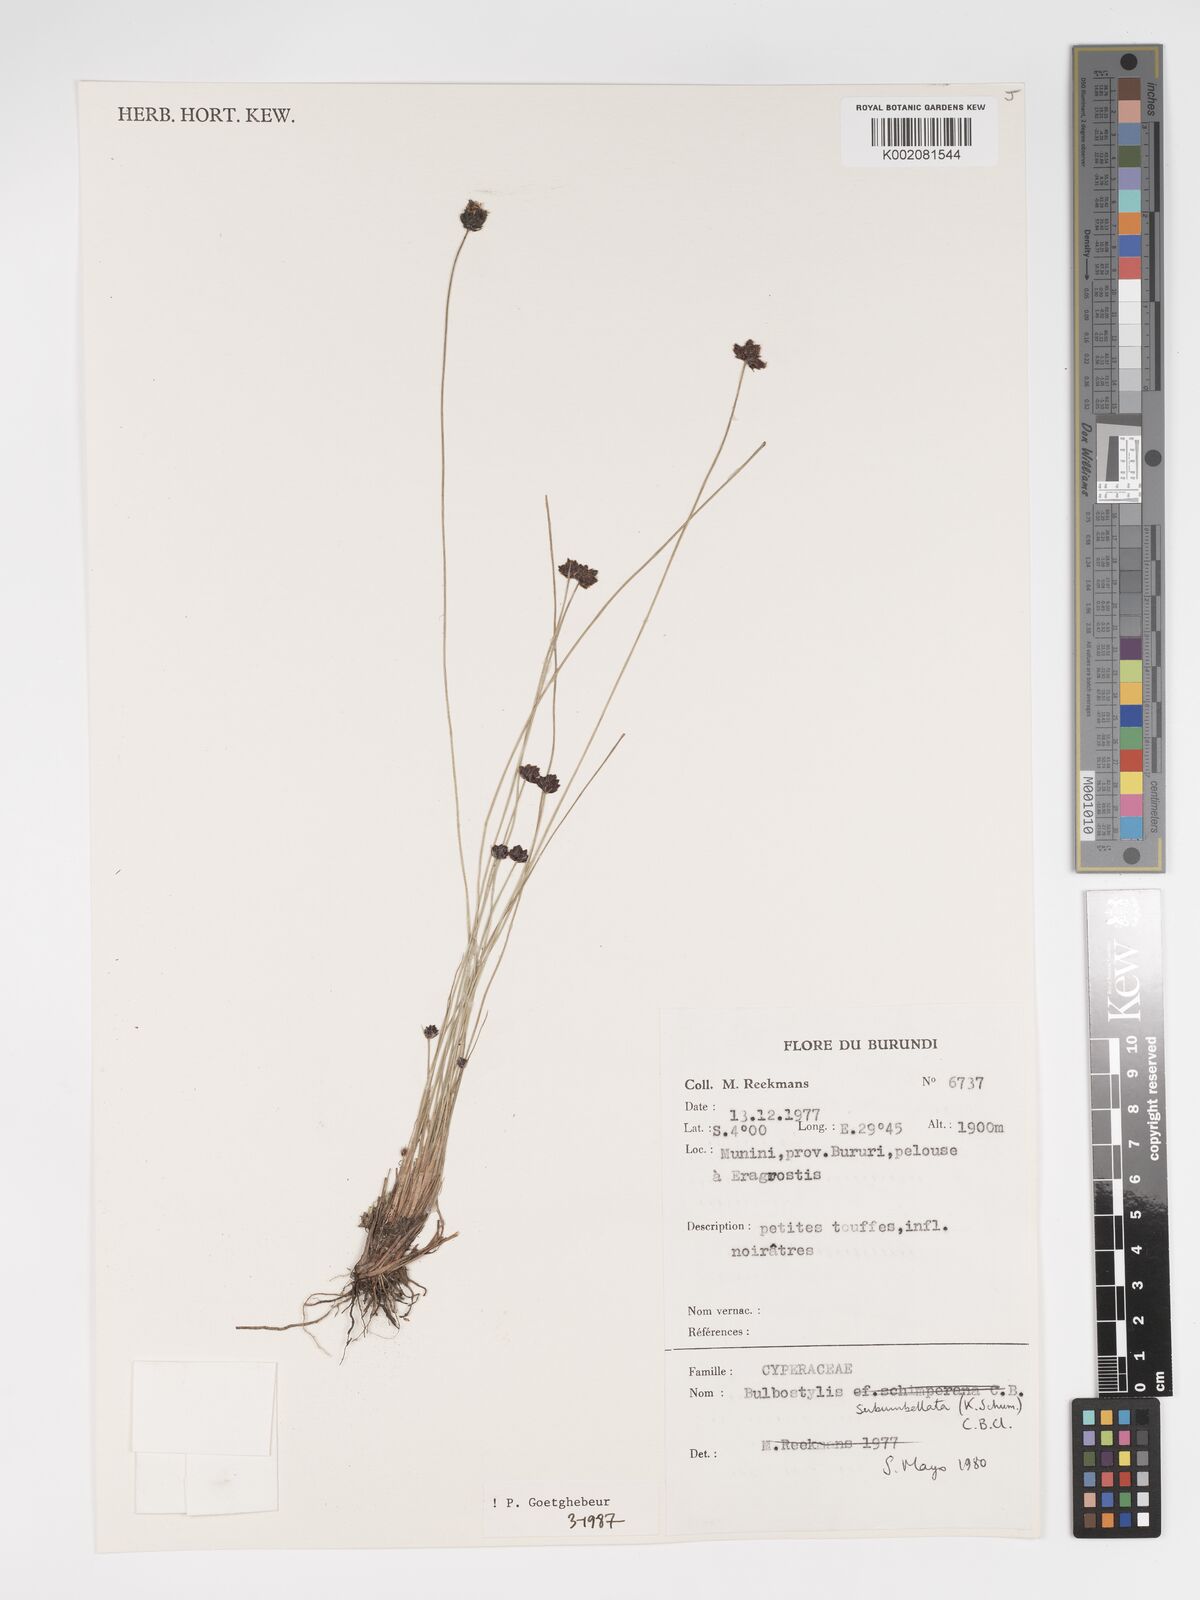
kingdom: Plantae
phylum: Tracheophyta
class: Liliopsida
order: Poales
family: Cyperaceae
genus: Bulbostylis
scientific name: Bulbostylis hensii
